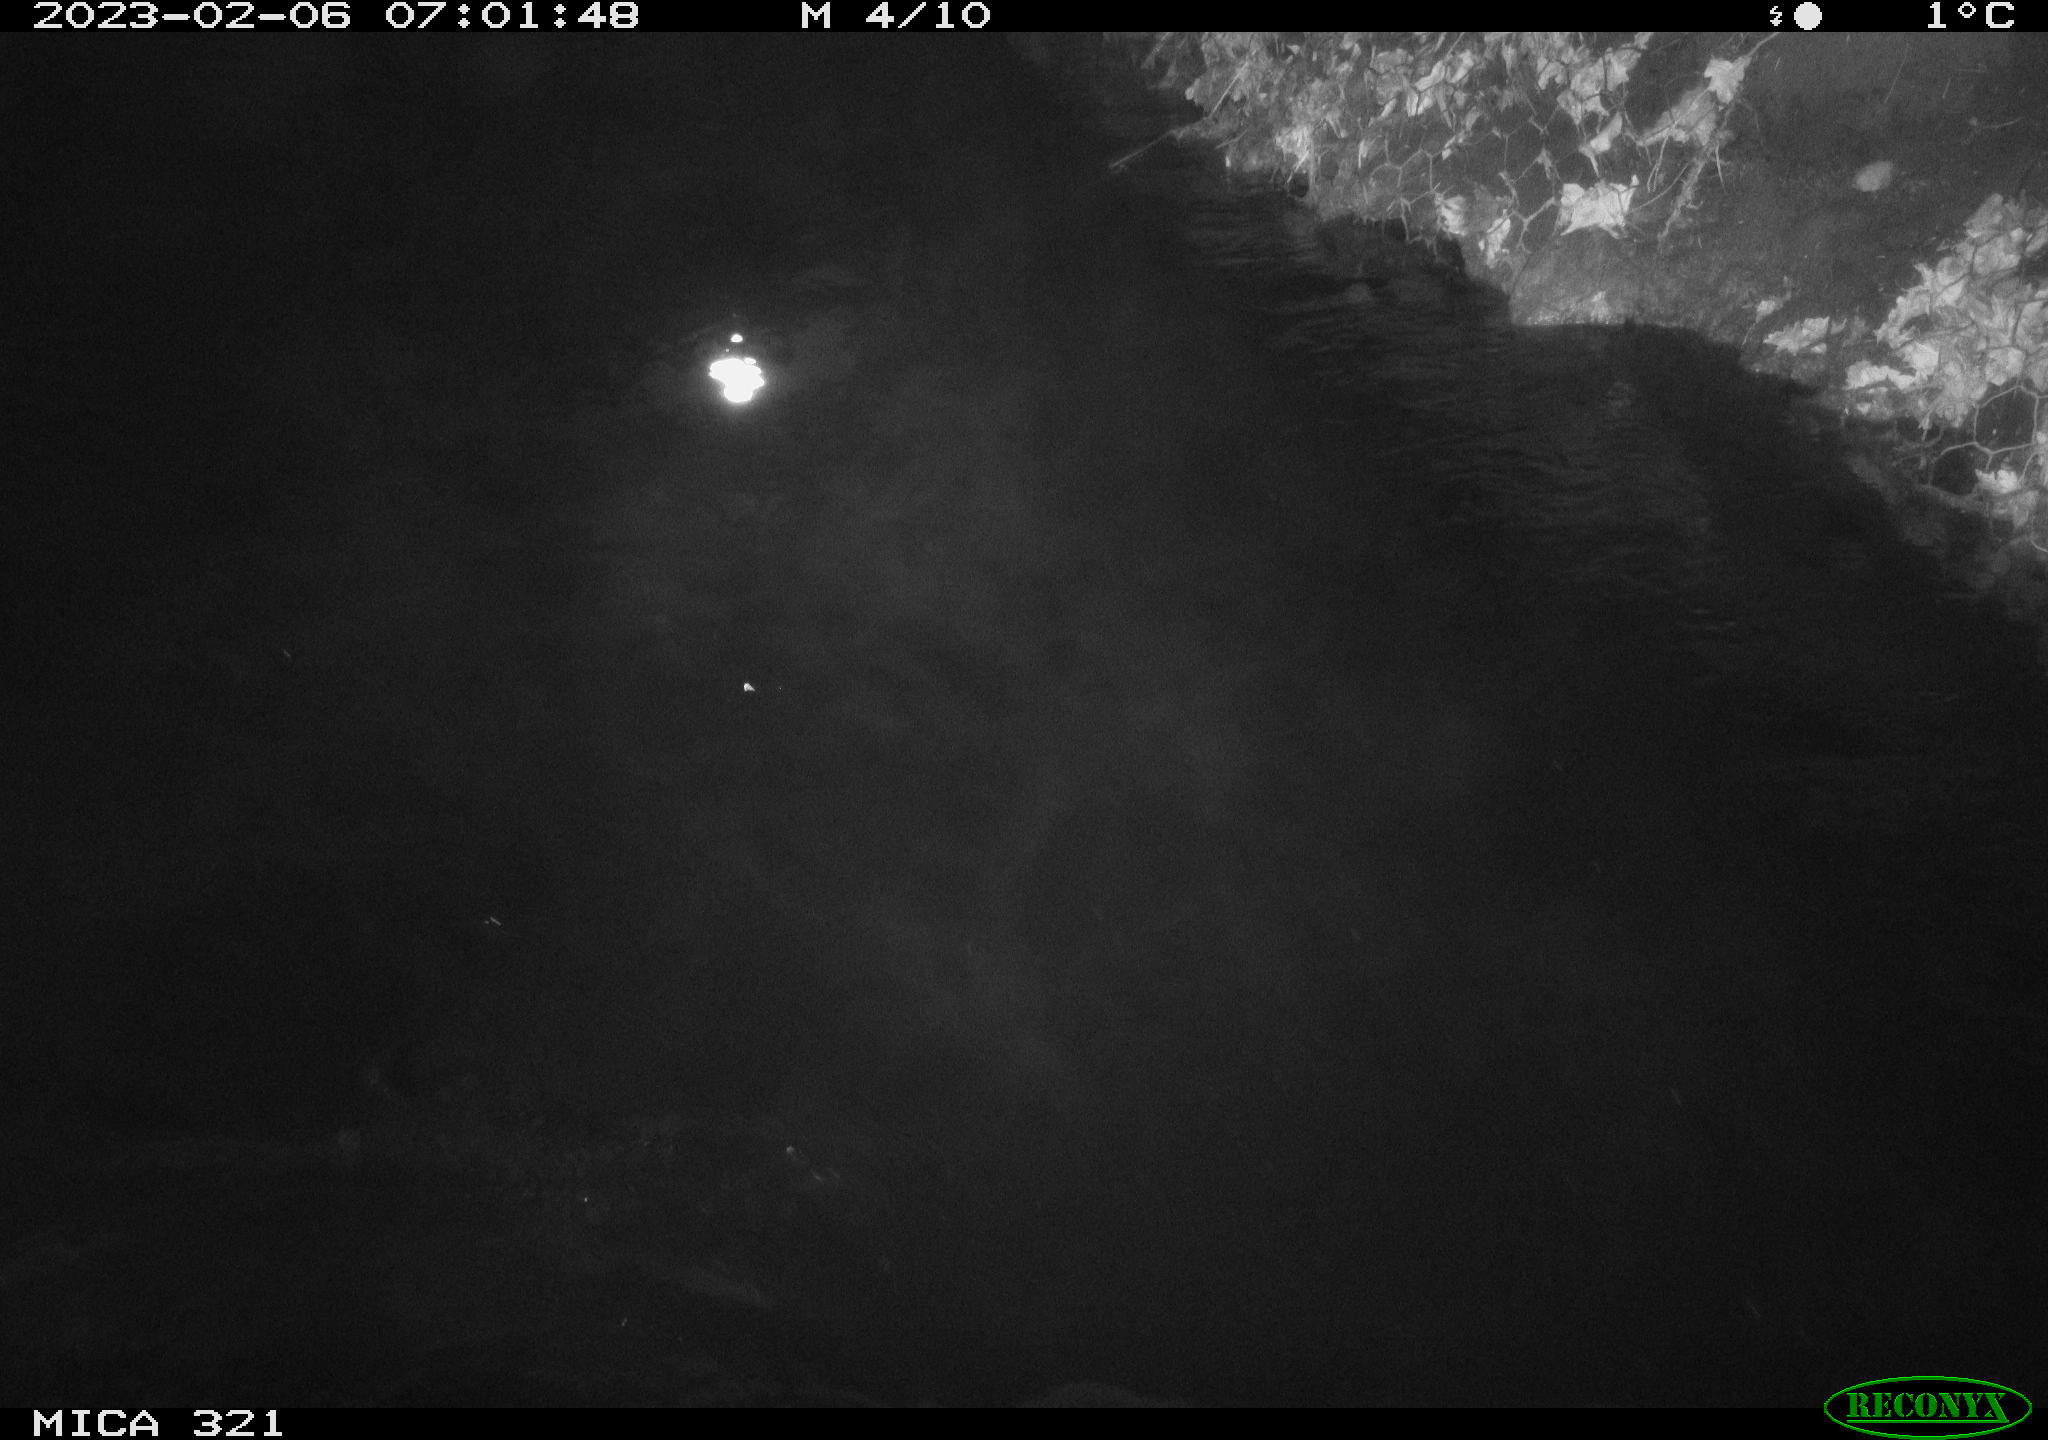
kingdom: Animalia
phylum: Chordata
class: Aves
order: Anseriformes
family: Anatidae
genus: Anas
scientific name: Anas
